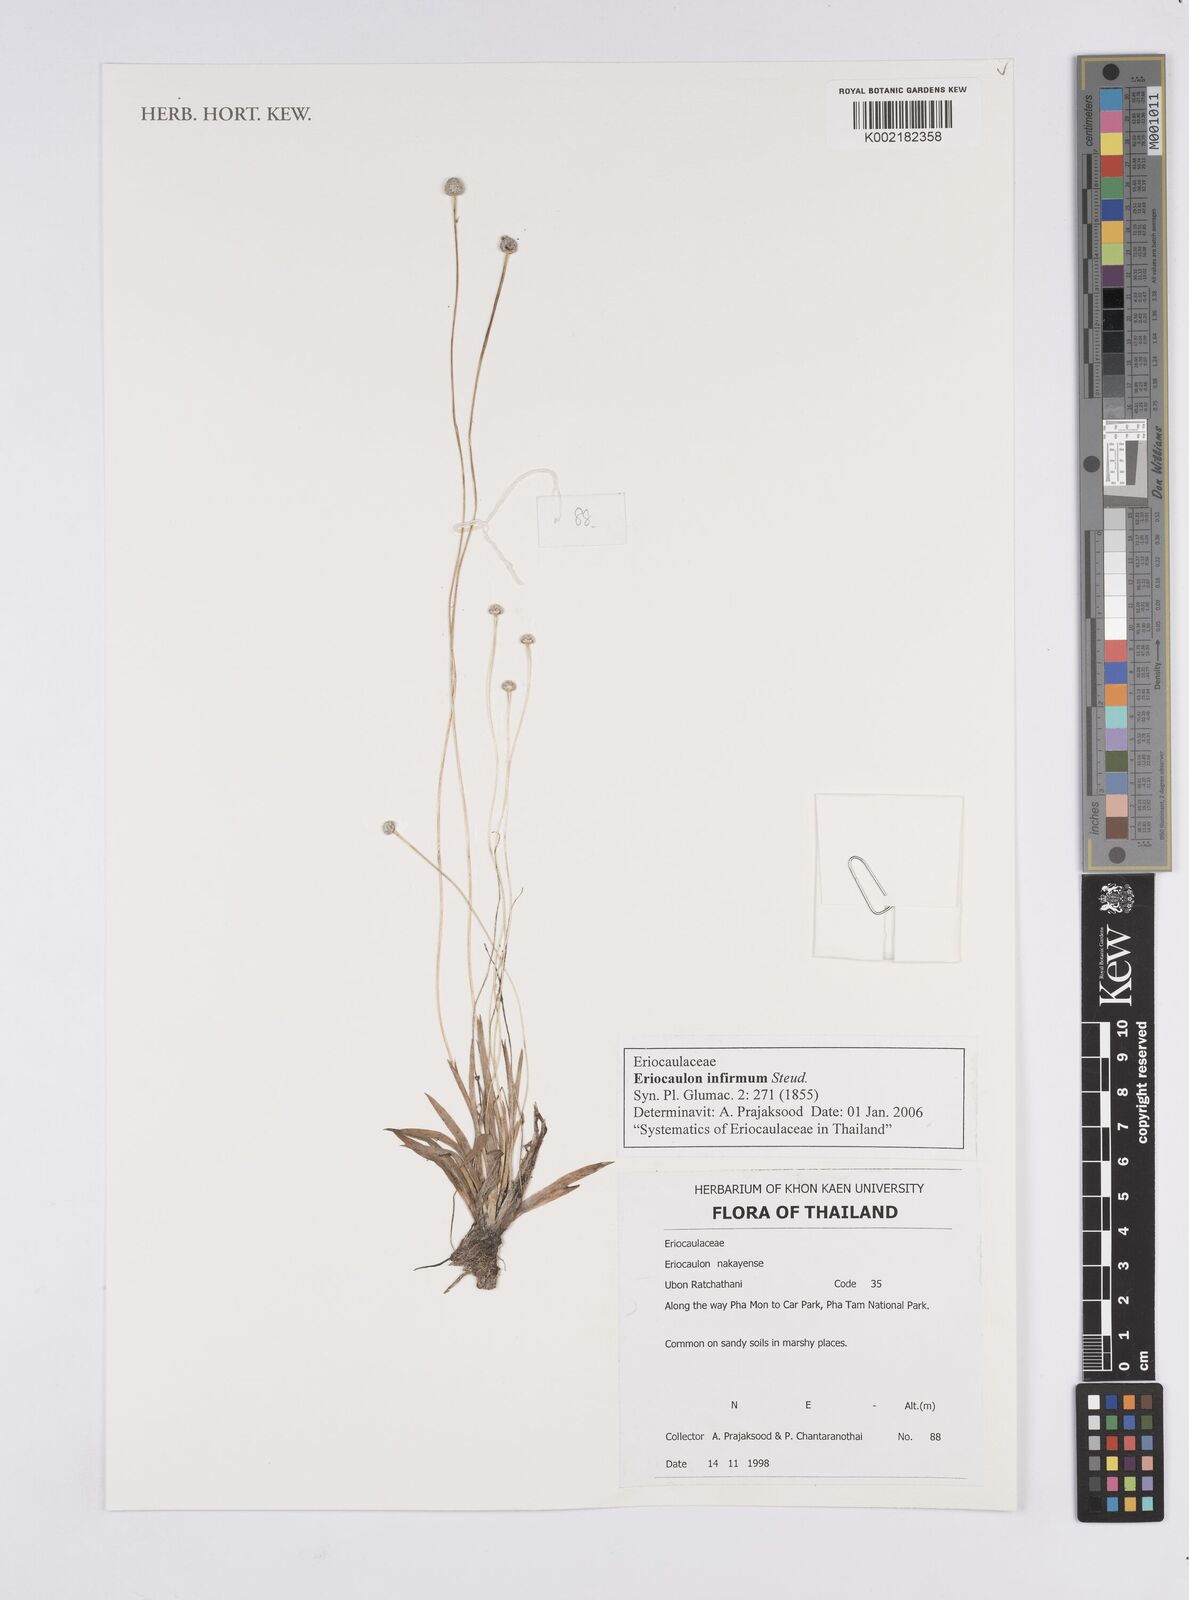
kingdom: Plantae
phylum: Tracheophyta
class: Liliopsida
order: Poales
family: Eriocaulaceae
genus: Eriocaulon
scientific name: Eriocaulon infirmum
